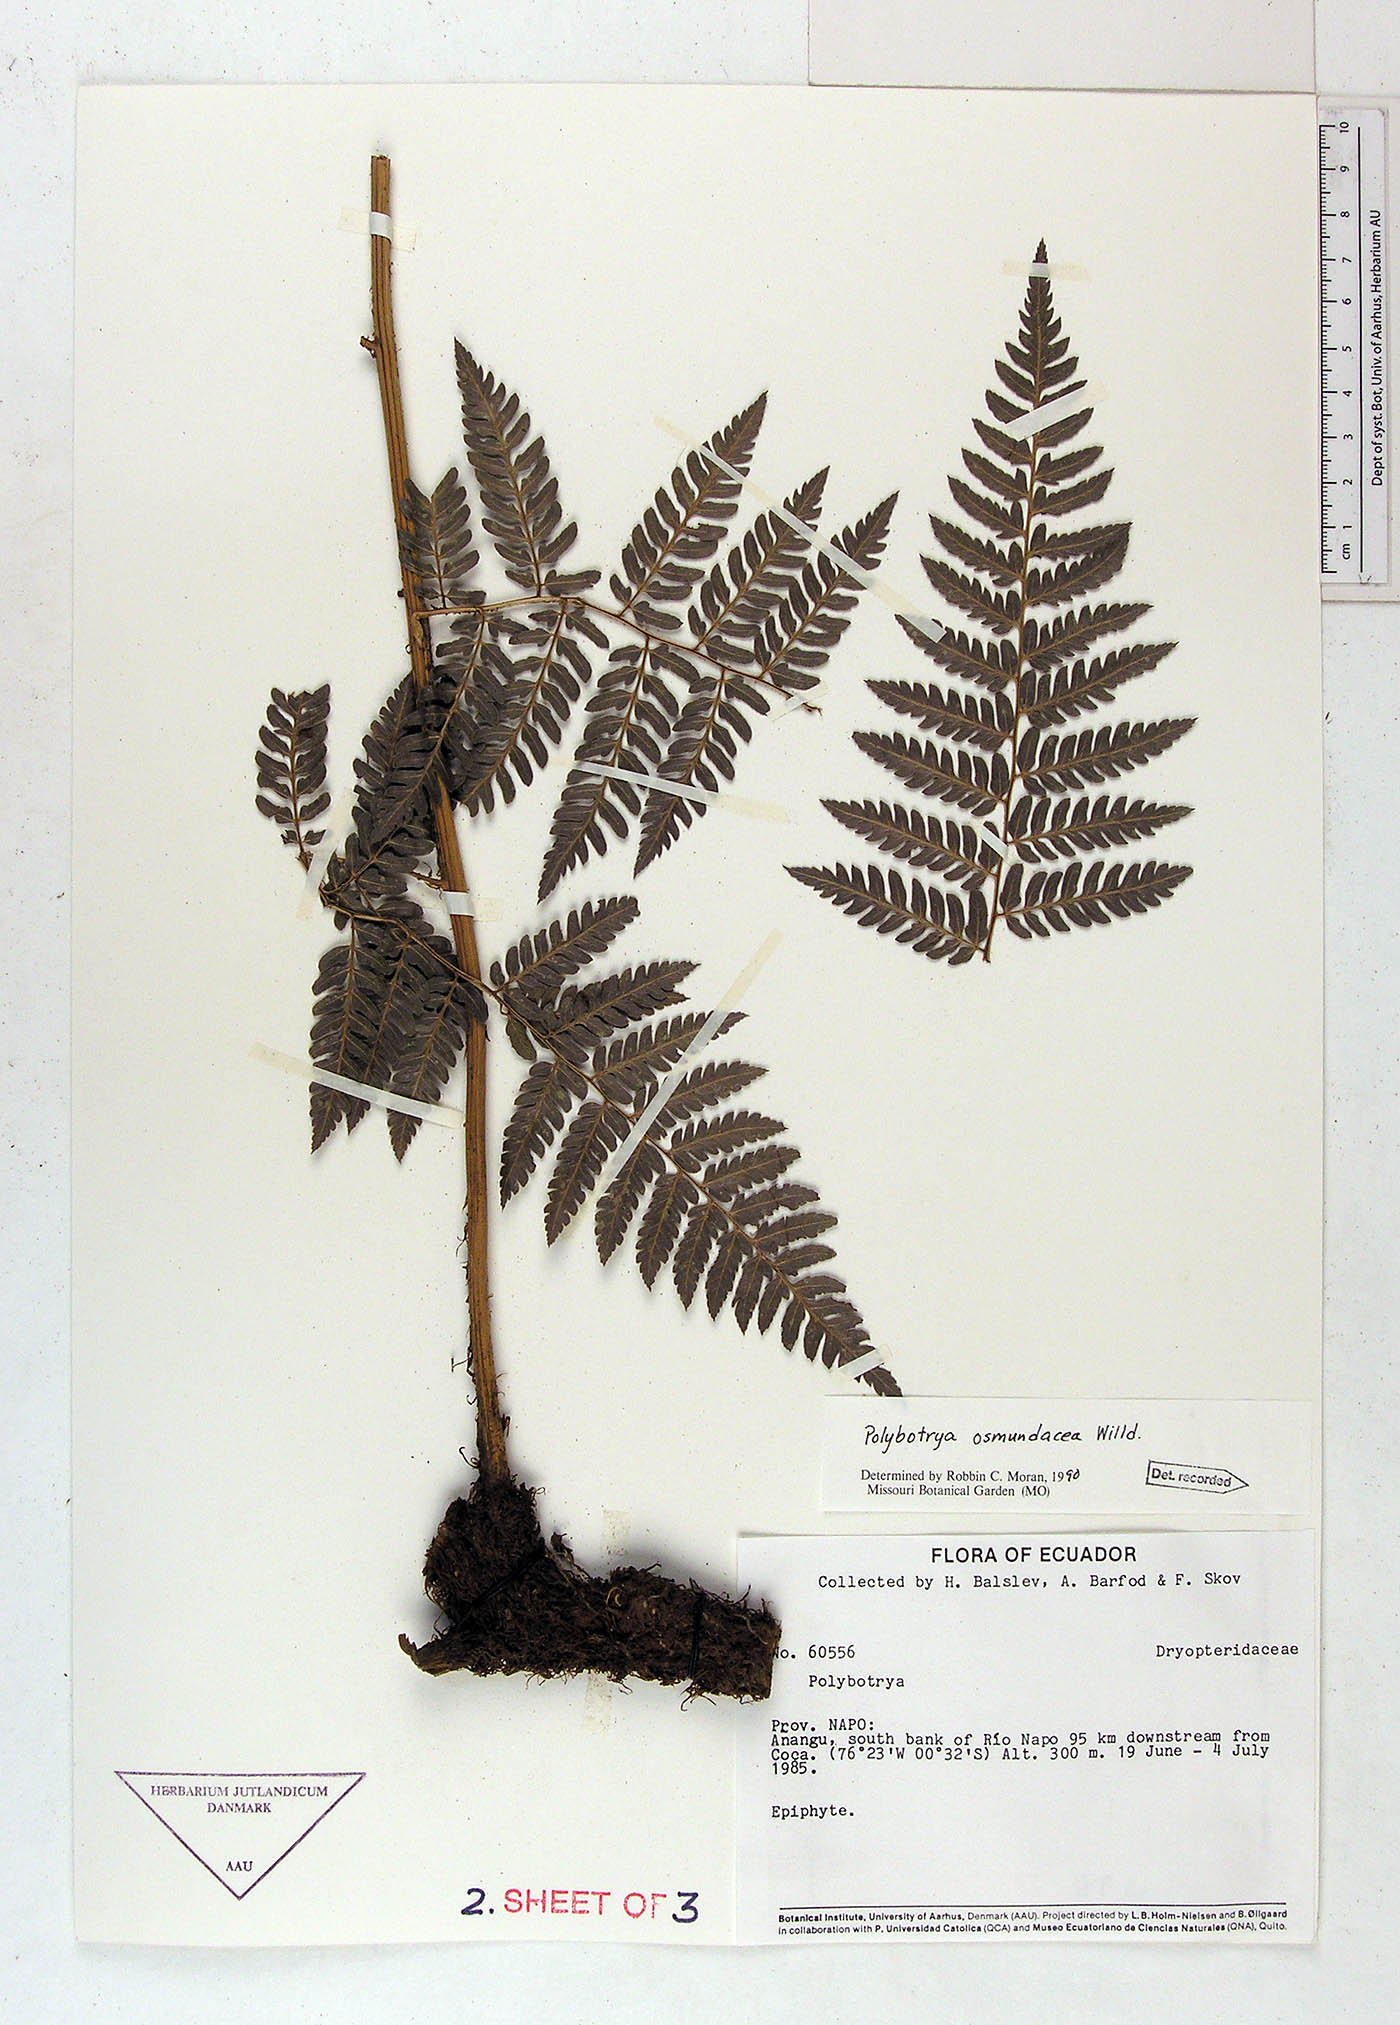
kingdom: Plantae
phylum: Tracheophyta
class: Polypodiopsida
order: Polypodiales
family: Dryopteridaceae
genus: Polybotrya
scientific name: Polybotrya osmundacea
